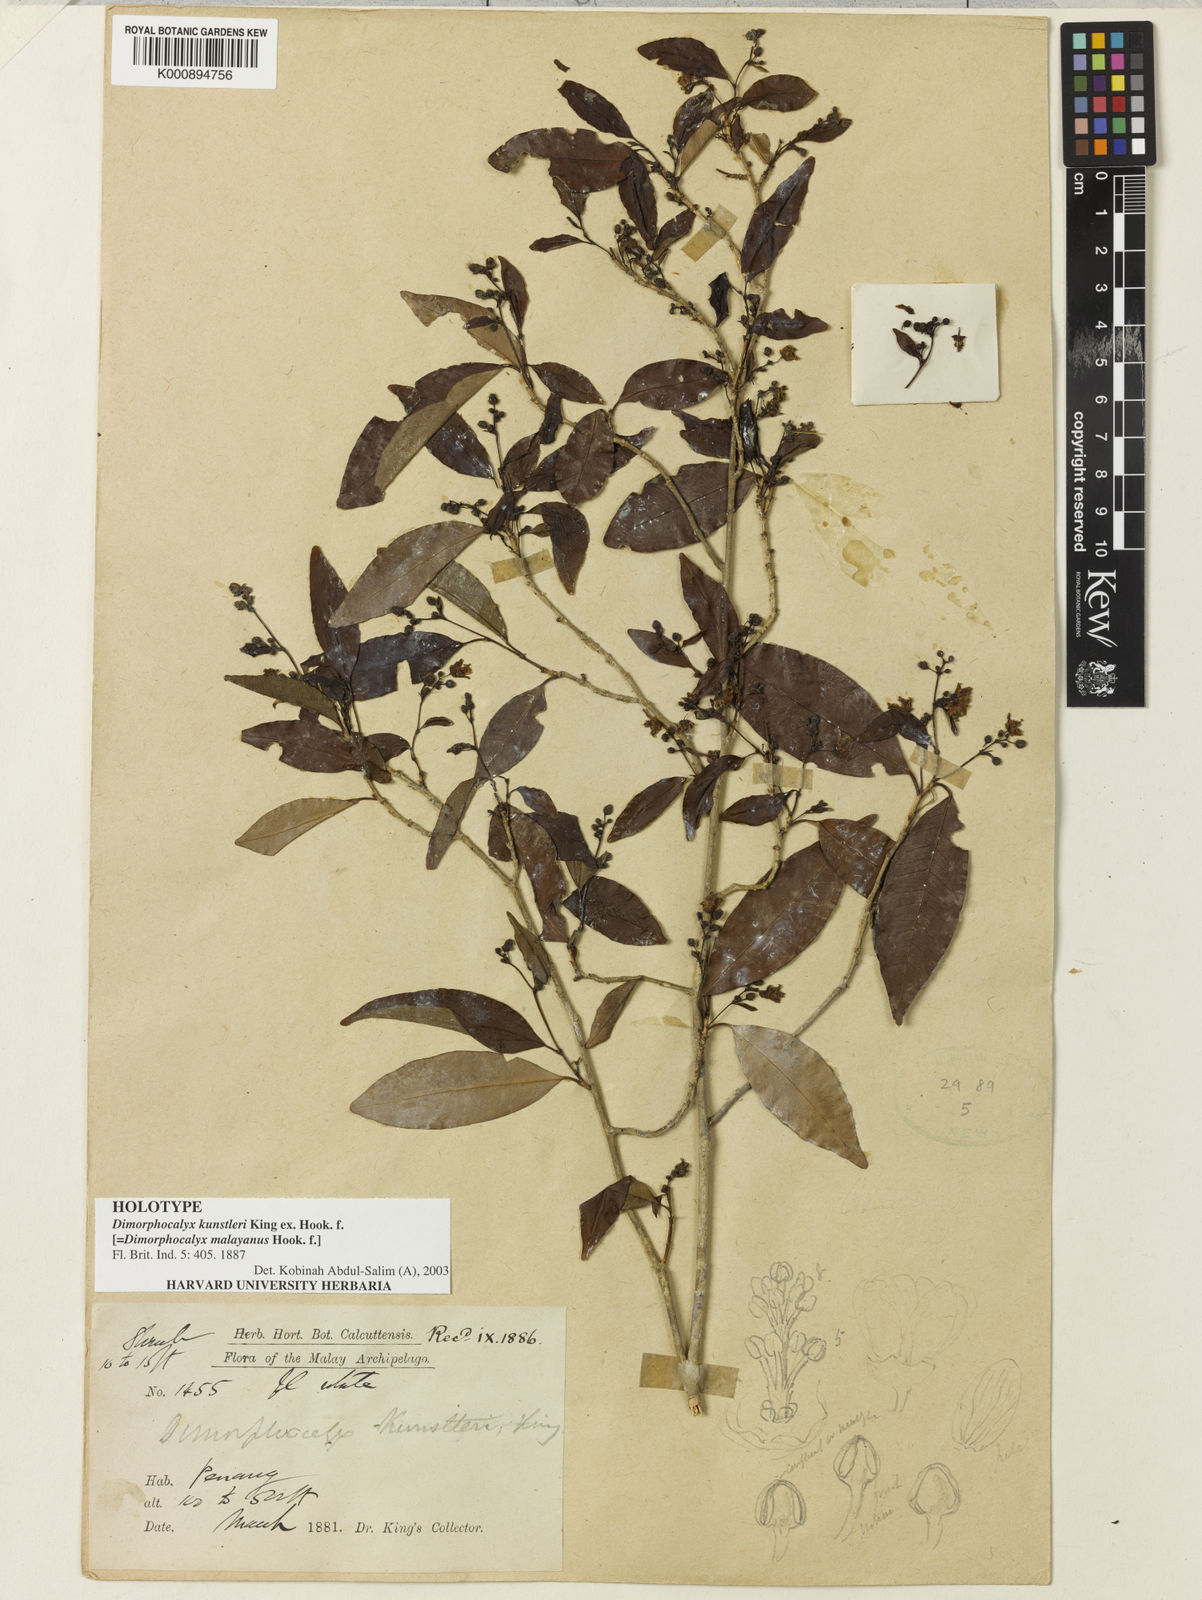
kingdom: Plantae
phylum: Tracheophyta
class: Magnoliopsida
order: Malpighiales
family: Euphorbiaceae
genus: Tritaxis
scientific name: Tritaxis malayana
